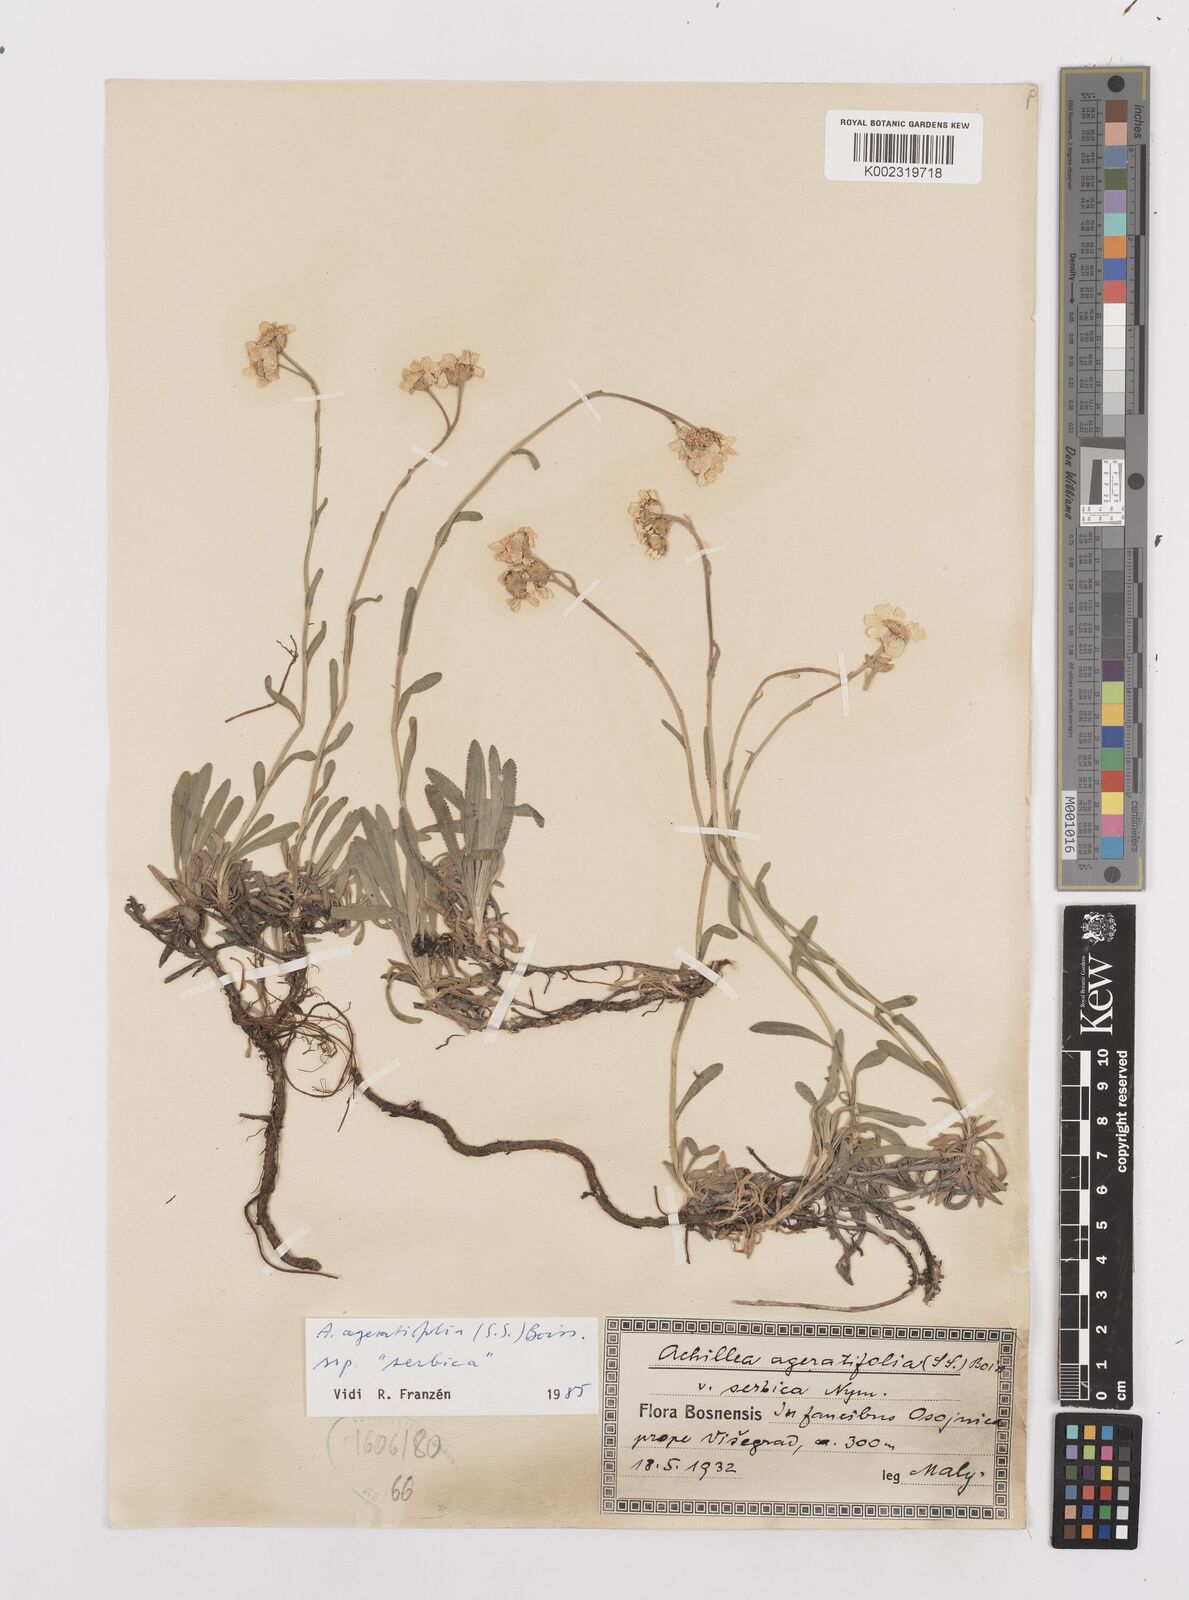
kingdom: Plantae
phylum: Tracheophyta
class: Magnoliopsida
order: Asterales
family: Asteraceae
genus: Achillea
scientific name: Achillea ageratifolia
